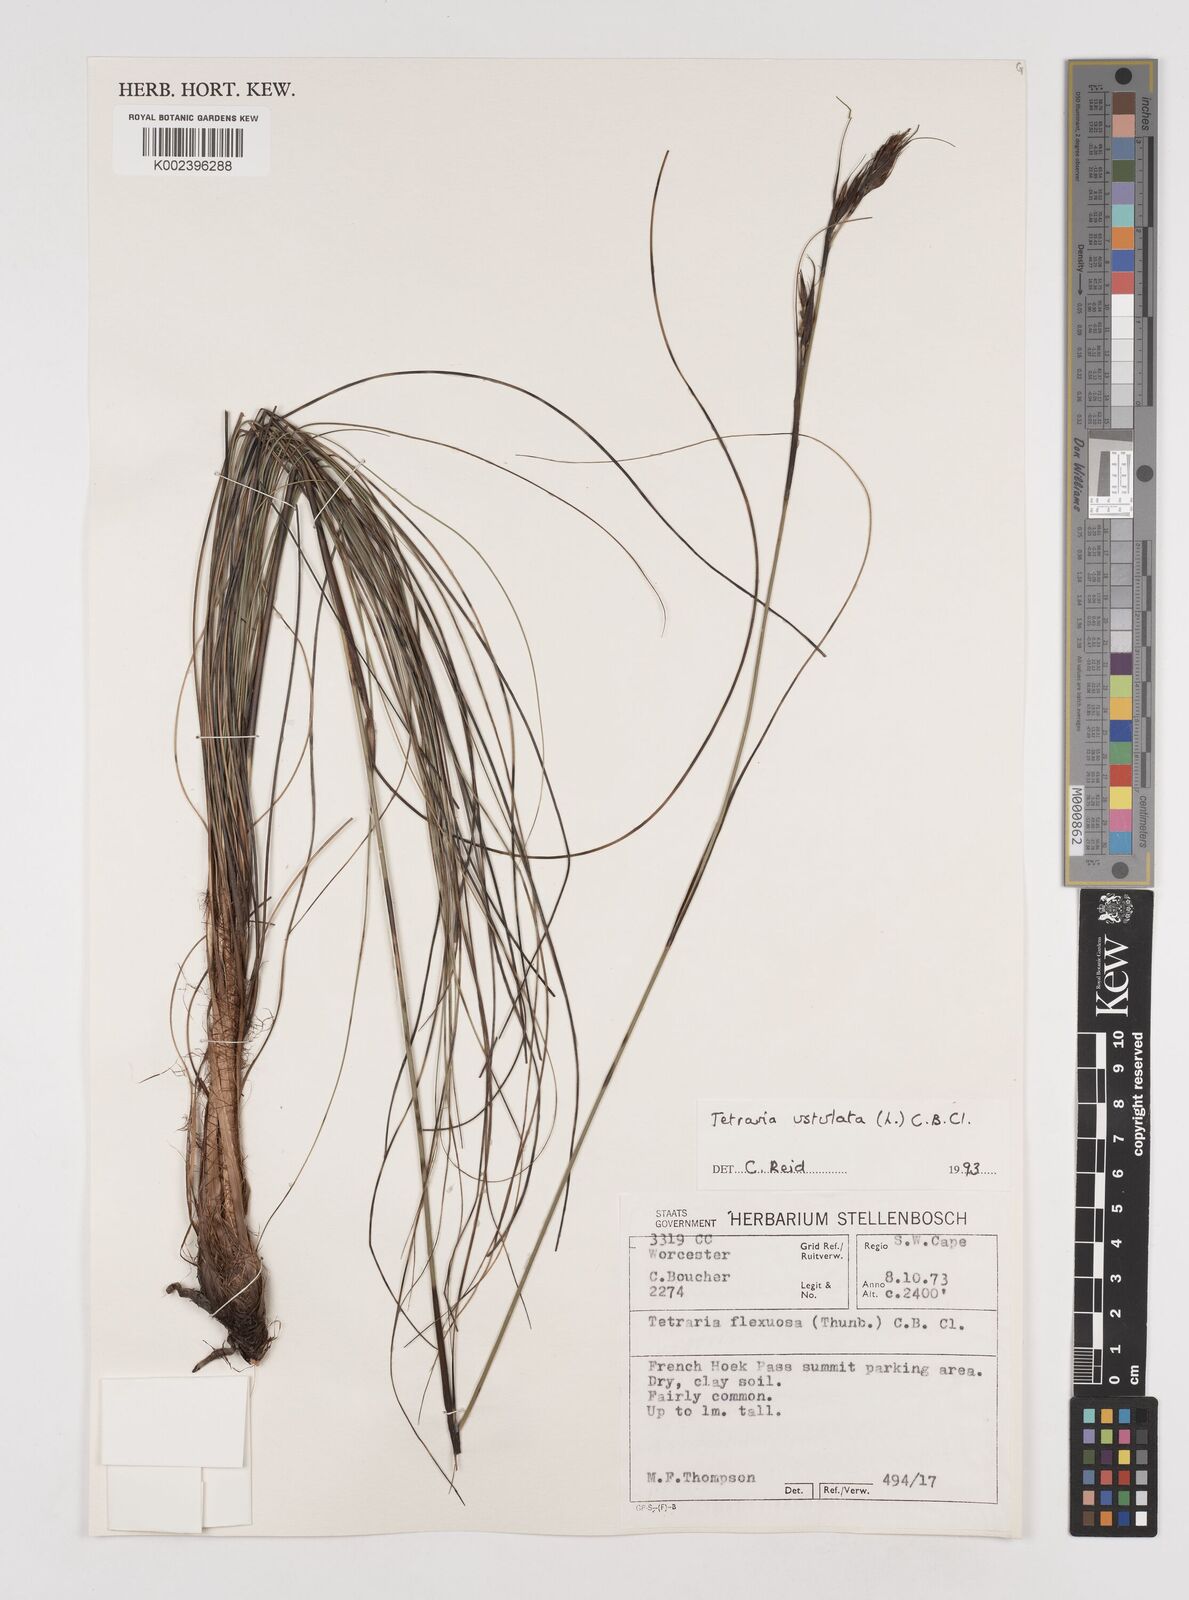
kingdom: Plantae
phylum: Tracheophyta
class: Liliopsida
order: Poales
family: Cyperaceae
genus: Tetraria
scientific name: Tetraria ustulata
